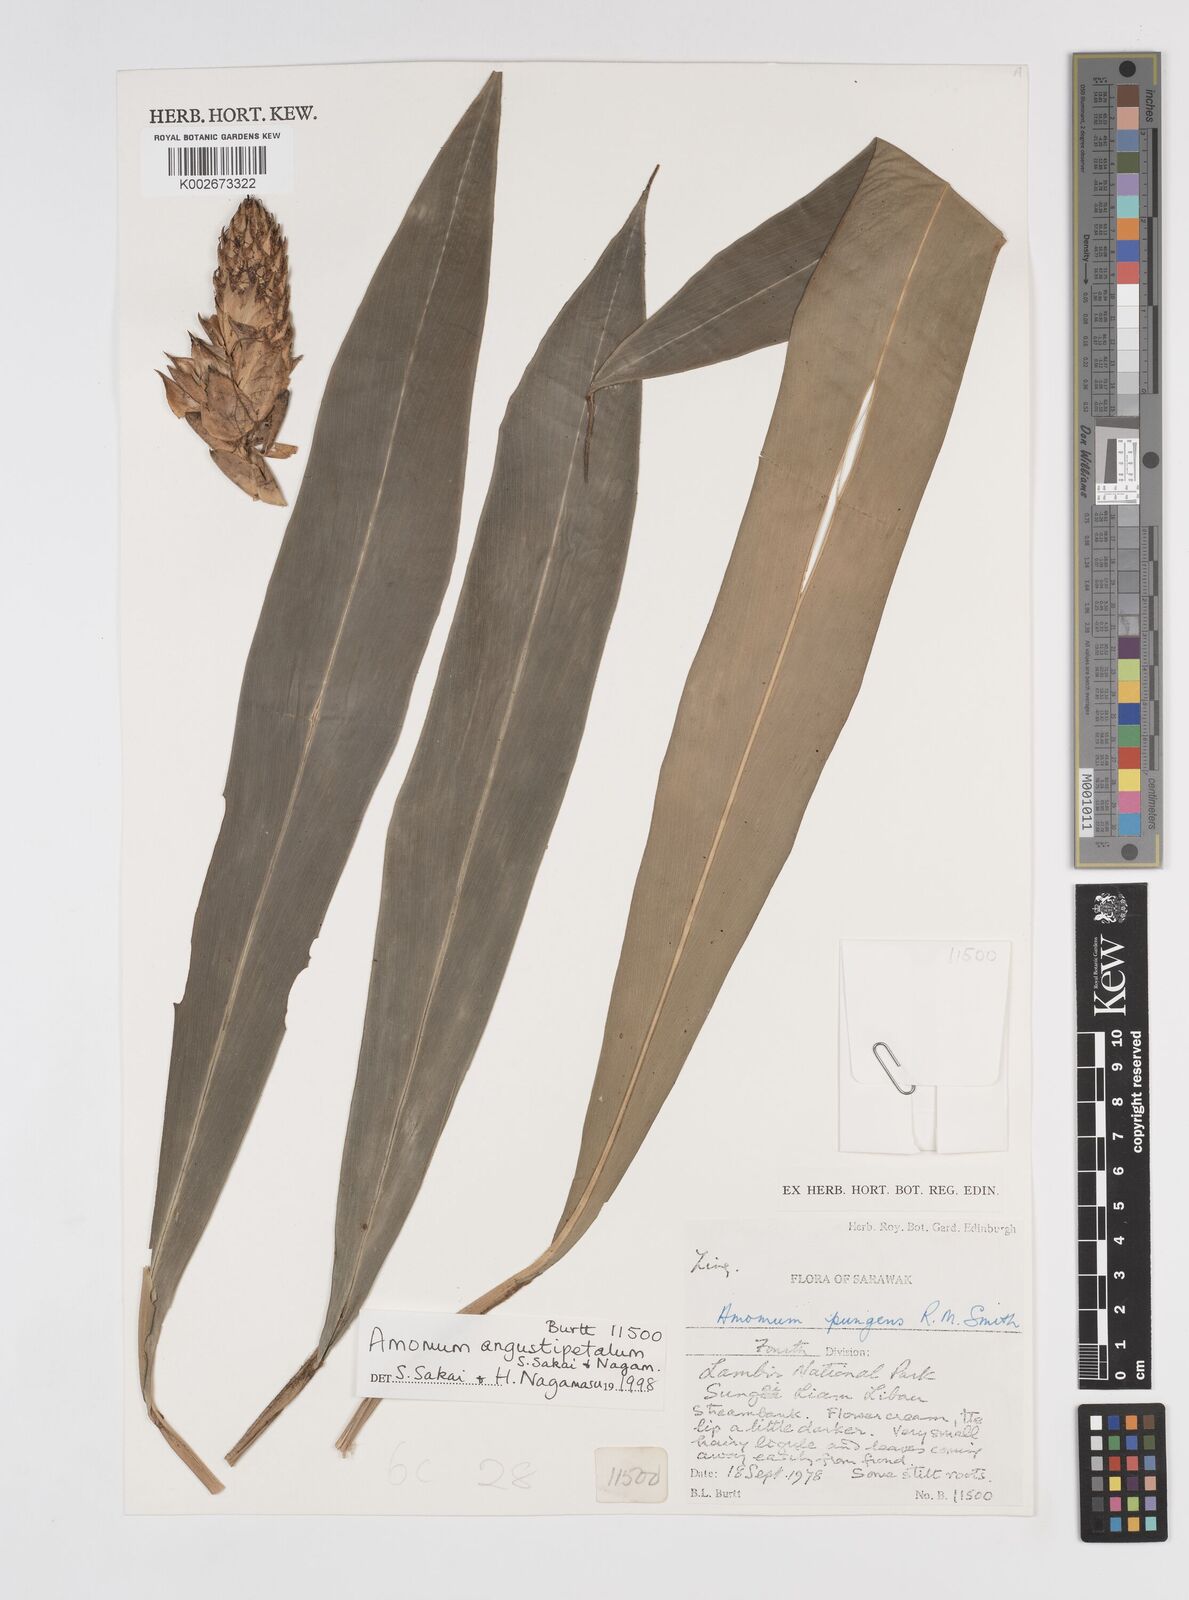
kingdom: Plantae
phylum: Tracheophyta
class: Liliopsida
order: Zingiberales
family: Zingiberaceae
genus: Aframomum
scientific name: Aframomum angustifolium
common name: Guinea grains
